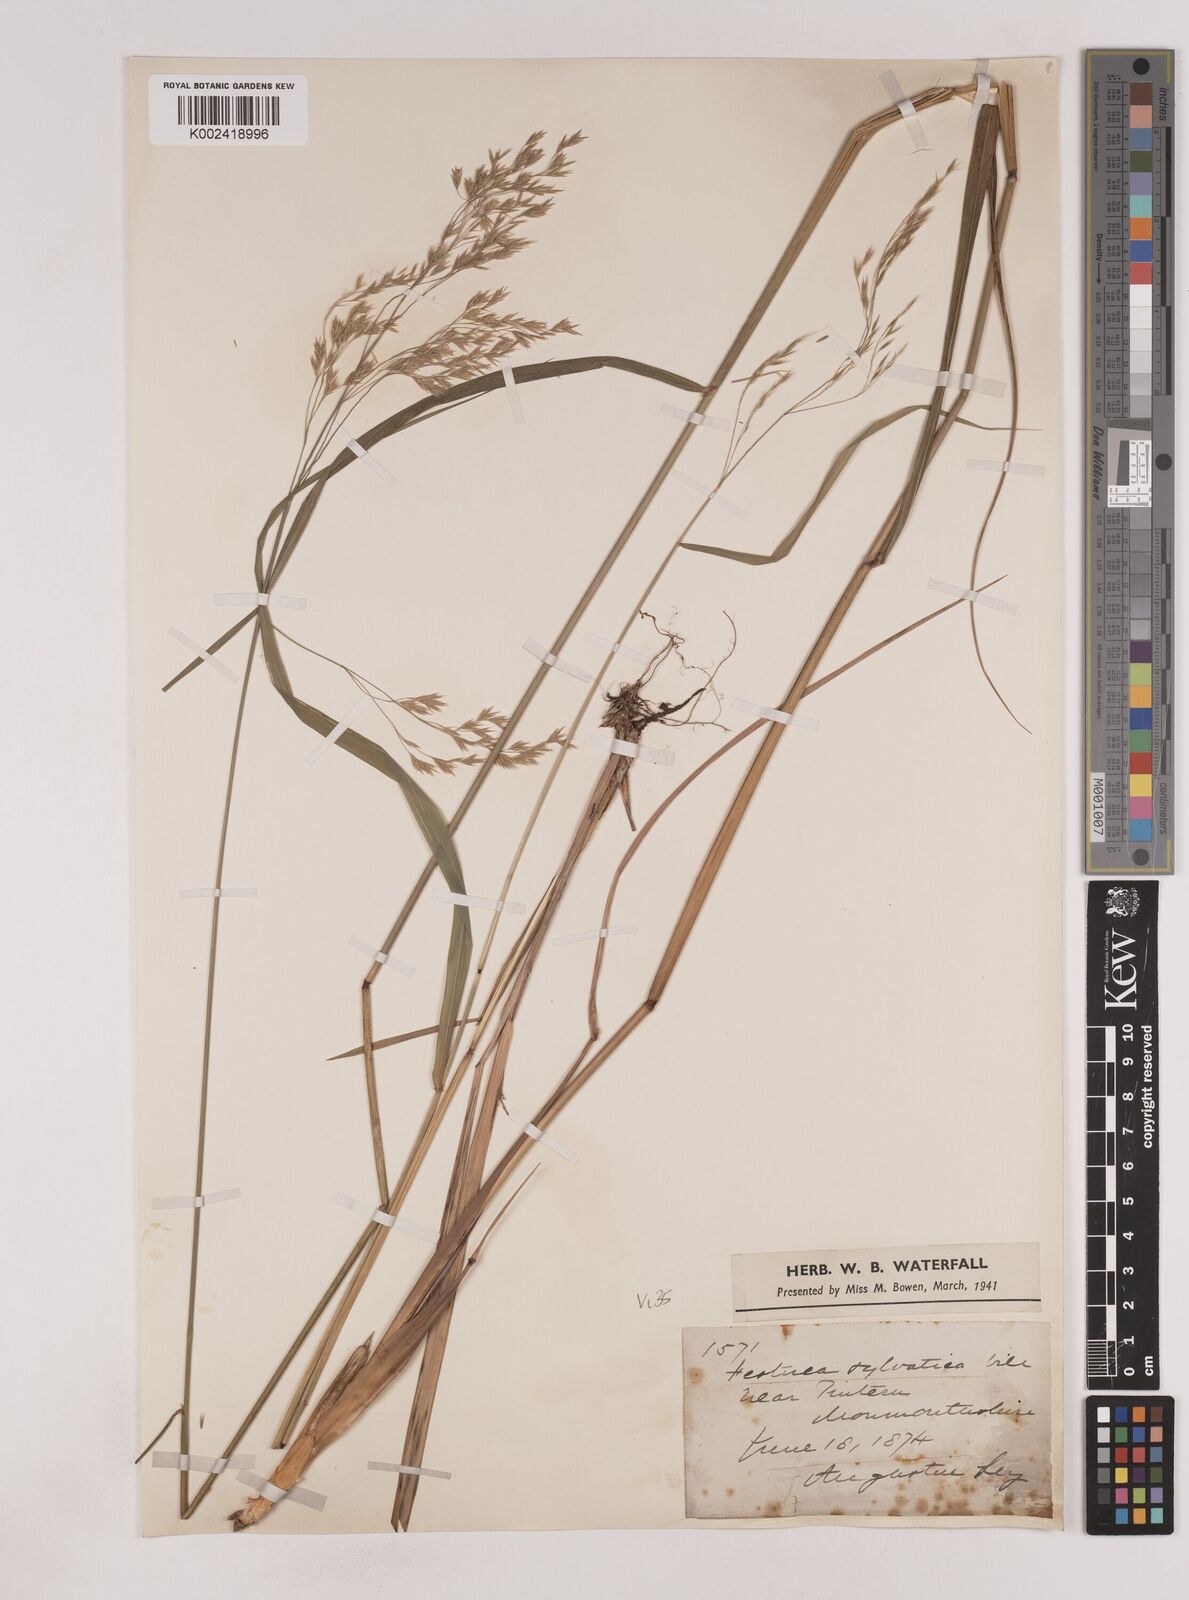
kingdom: Plantae
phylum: Tracheophyta
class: Liliopsida
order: Poales
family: Poaceae
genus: Festuca
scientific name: Festuca drymeja
